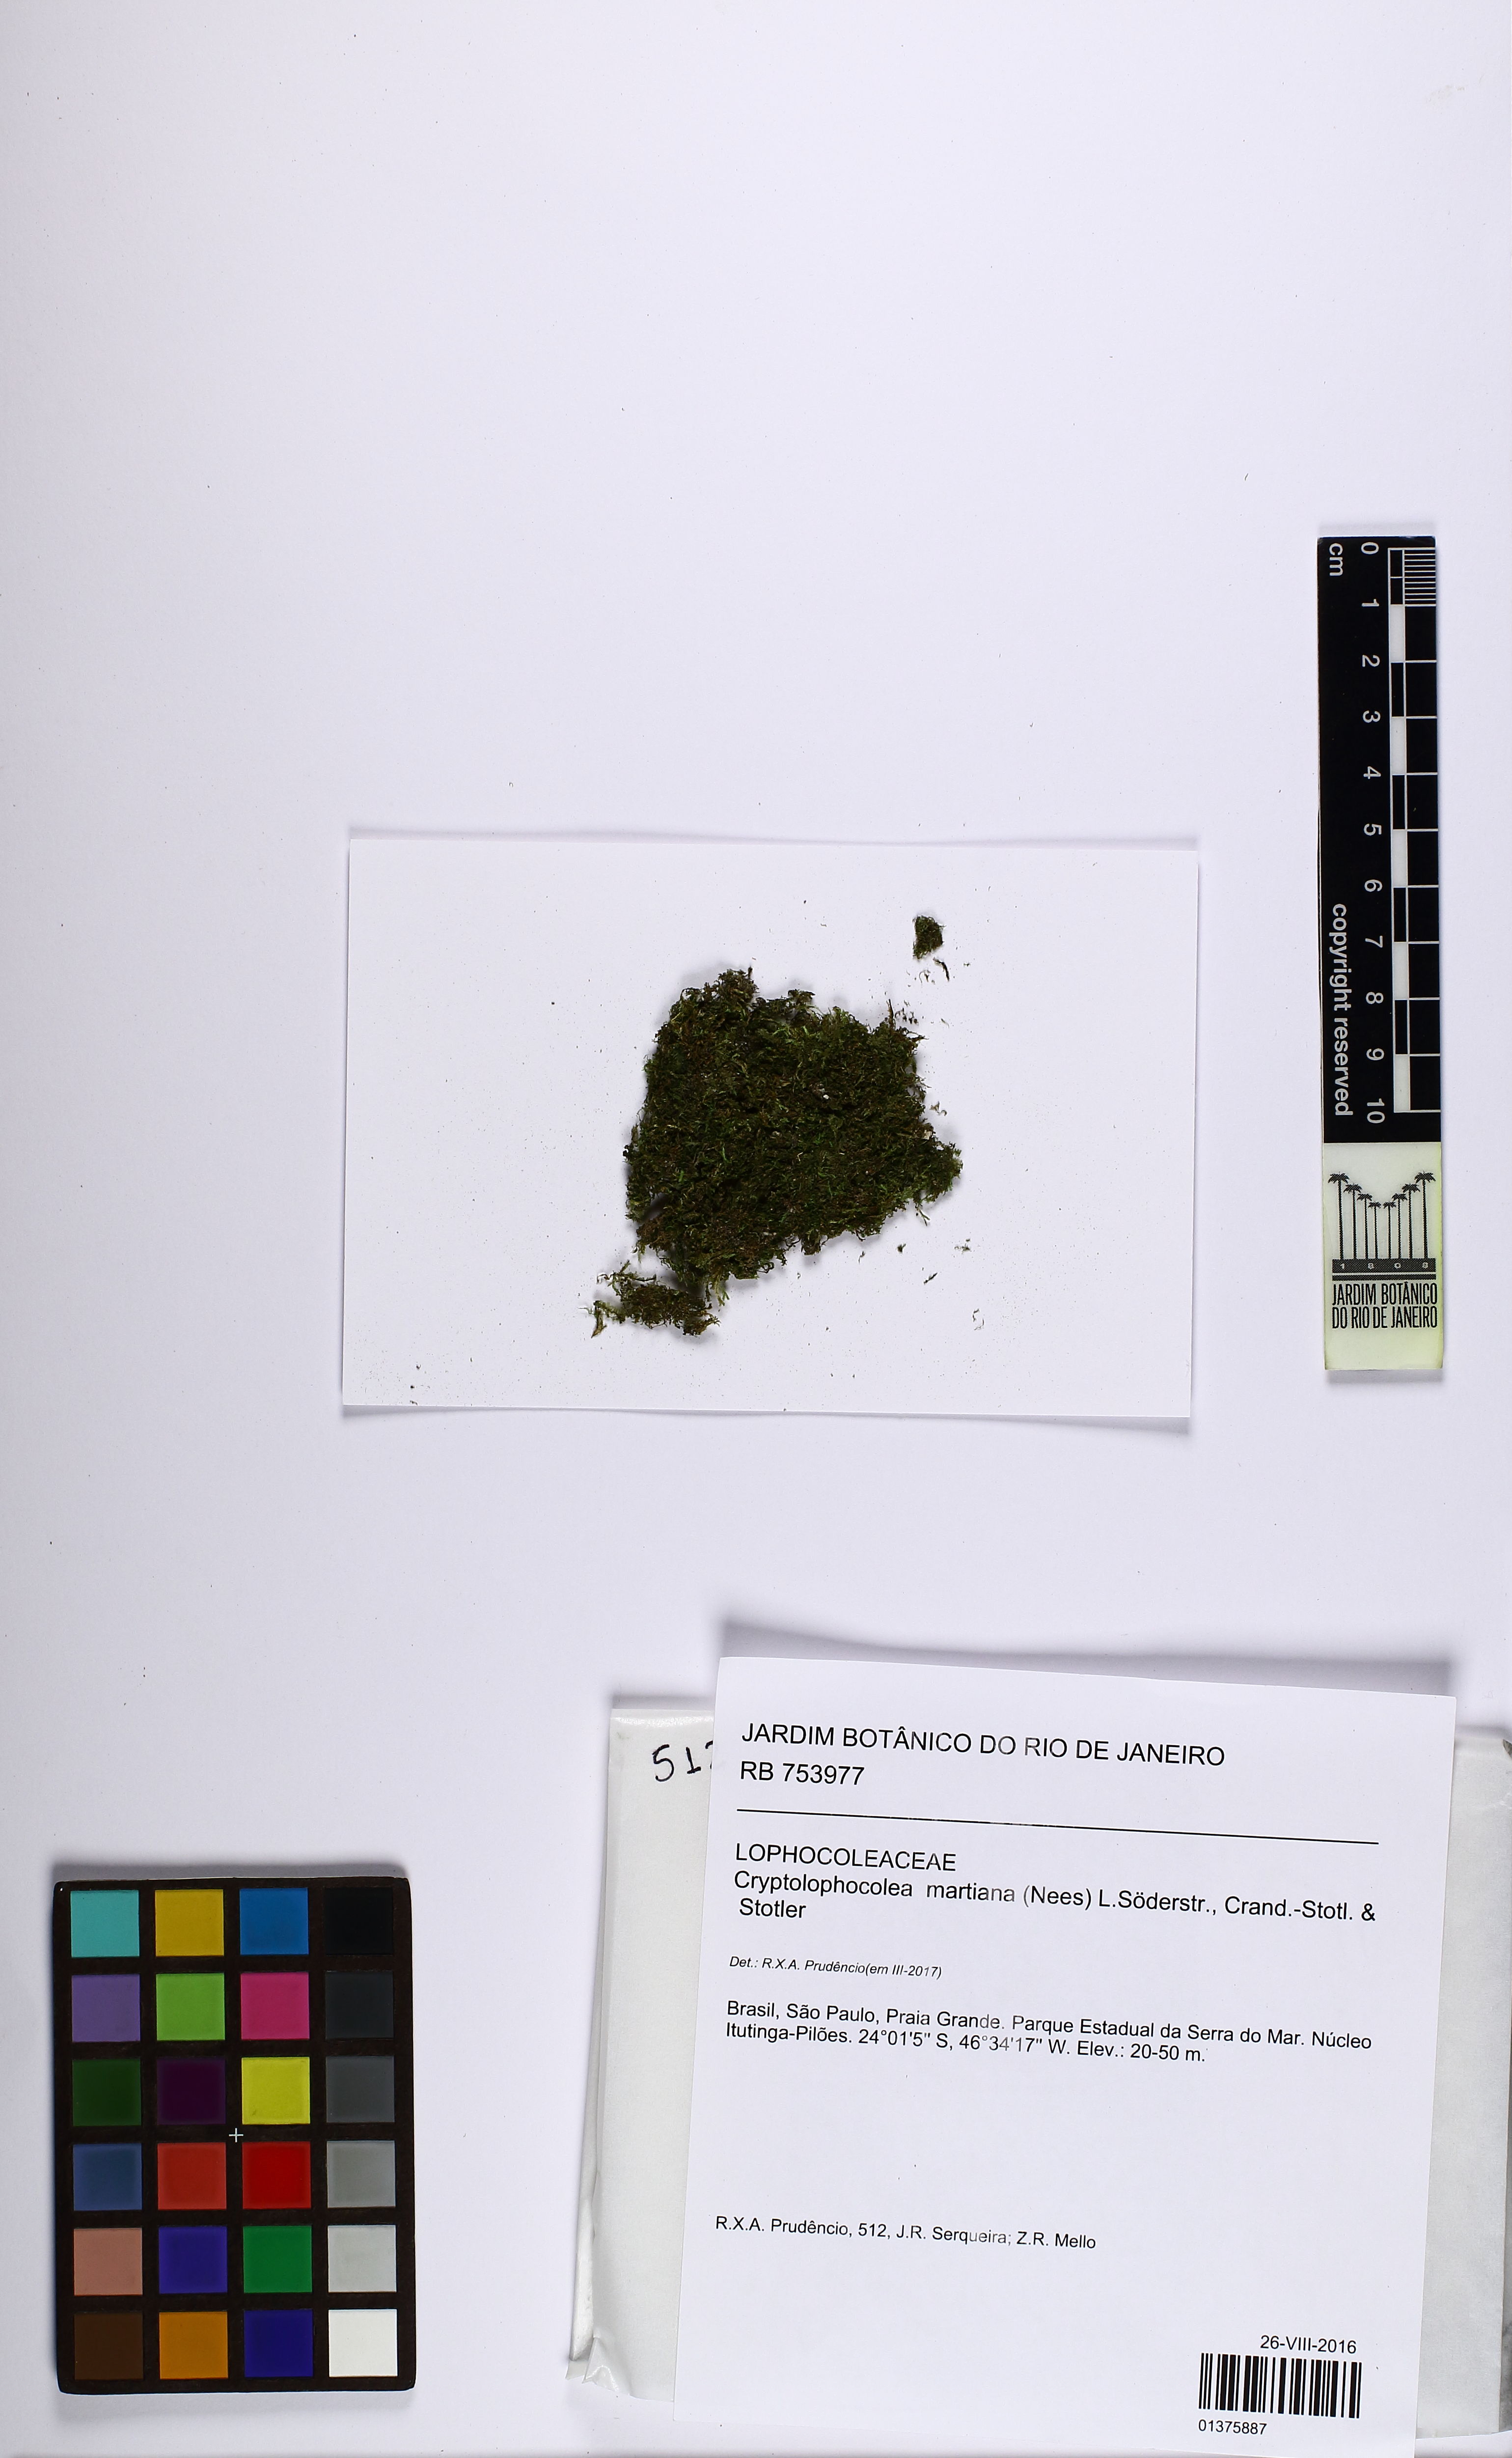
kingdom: Plantae
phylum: Marchantiophyta
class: Jungermanniopsida
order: Jungermanniales
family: Lophocoleaceae
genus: Cryptolophocolea
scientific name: Cryptolophocolea martiana
